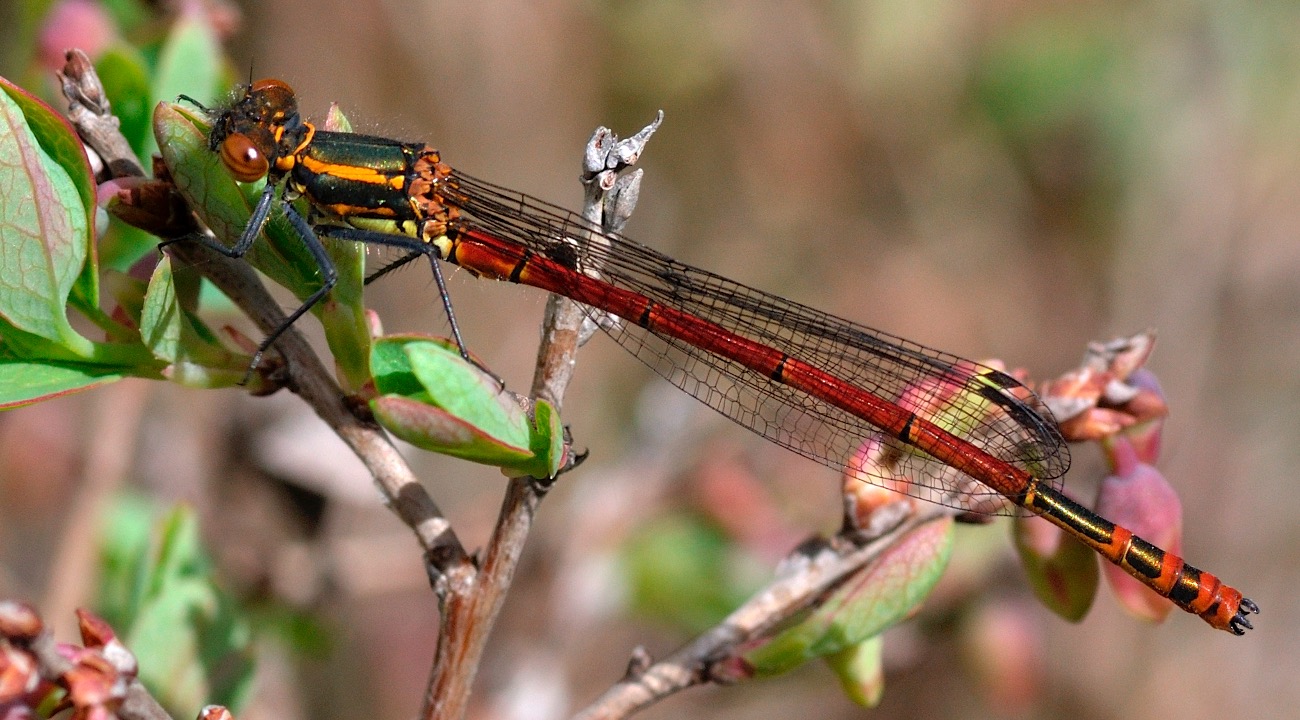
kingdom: Animalia
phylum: Arthropoda
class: Insecta
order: Odonata
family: Coenagrionidae
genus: Pyrrhosoma
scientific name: Pyrrhosoma nymphula
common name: Rød vandnymfe
